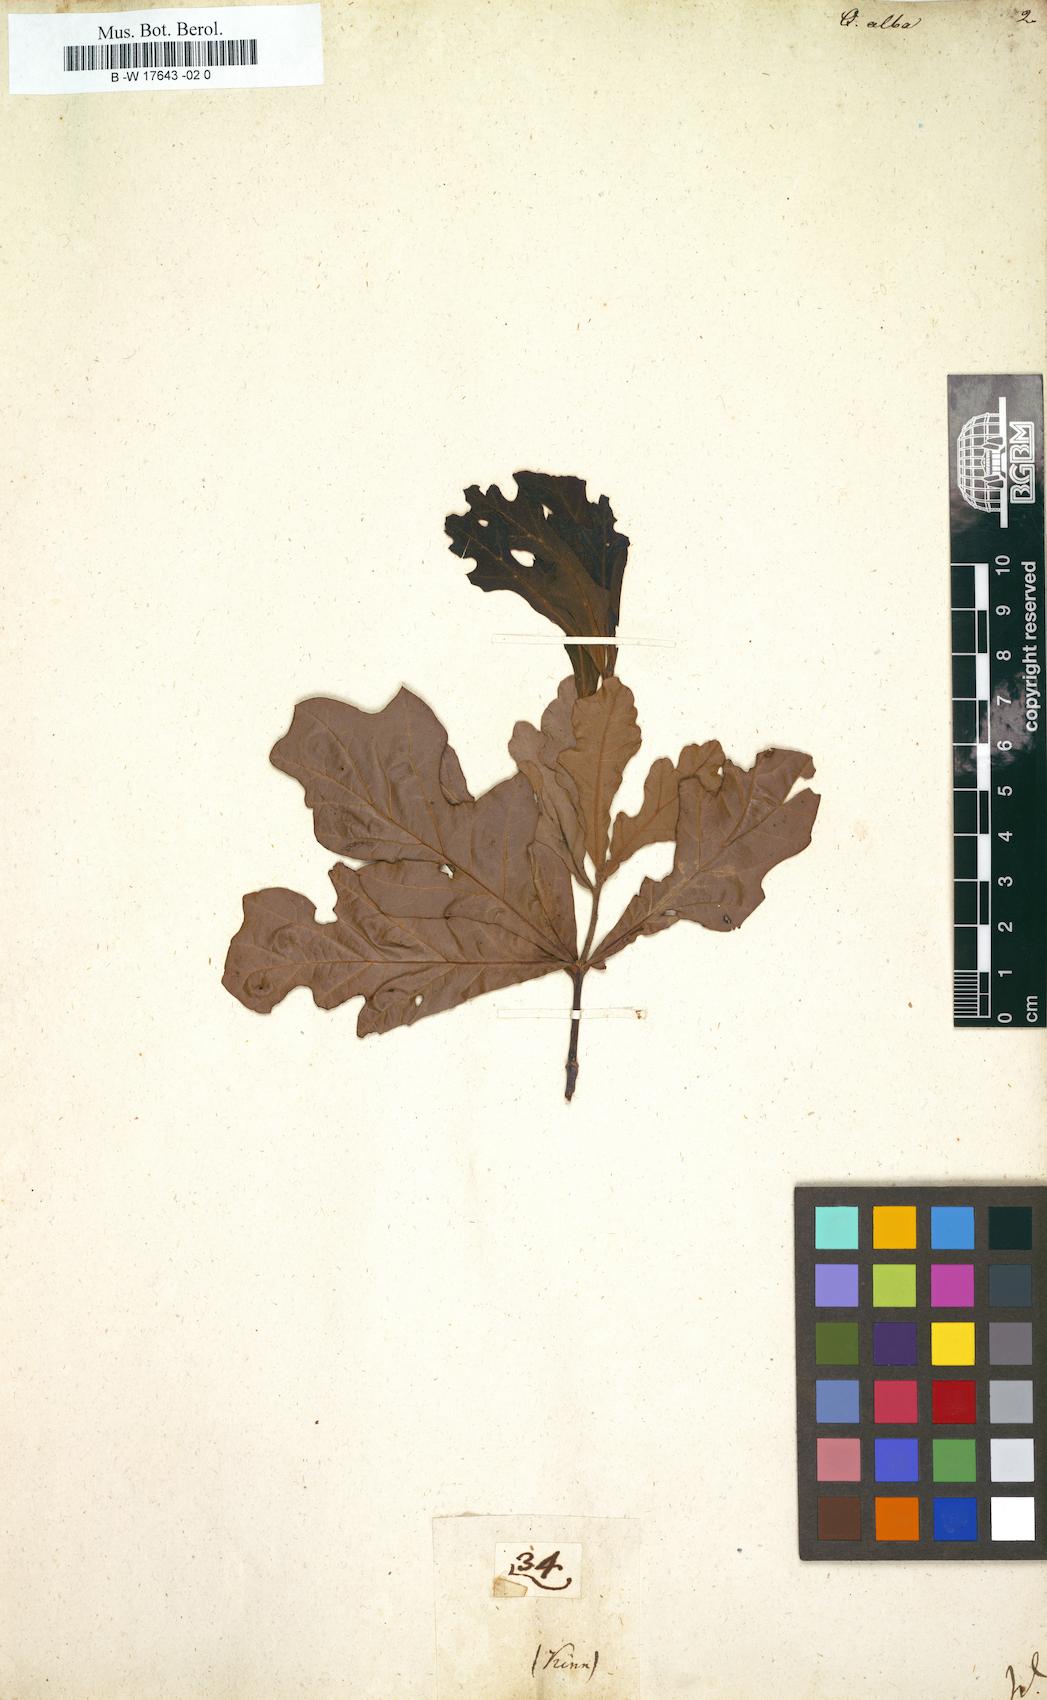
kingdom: Plantae
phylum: Tracheophyta
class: Magnoliopsida
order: Fagales
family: Fagaceae
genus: Quercus
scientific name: Quercus alba
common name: White oak
